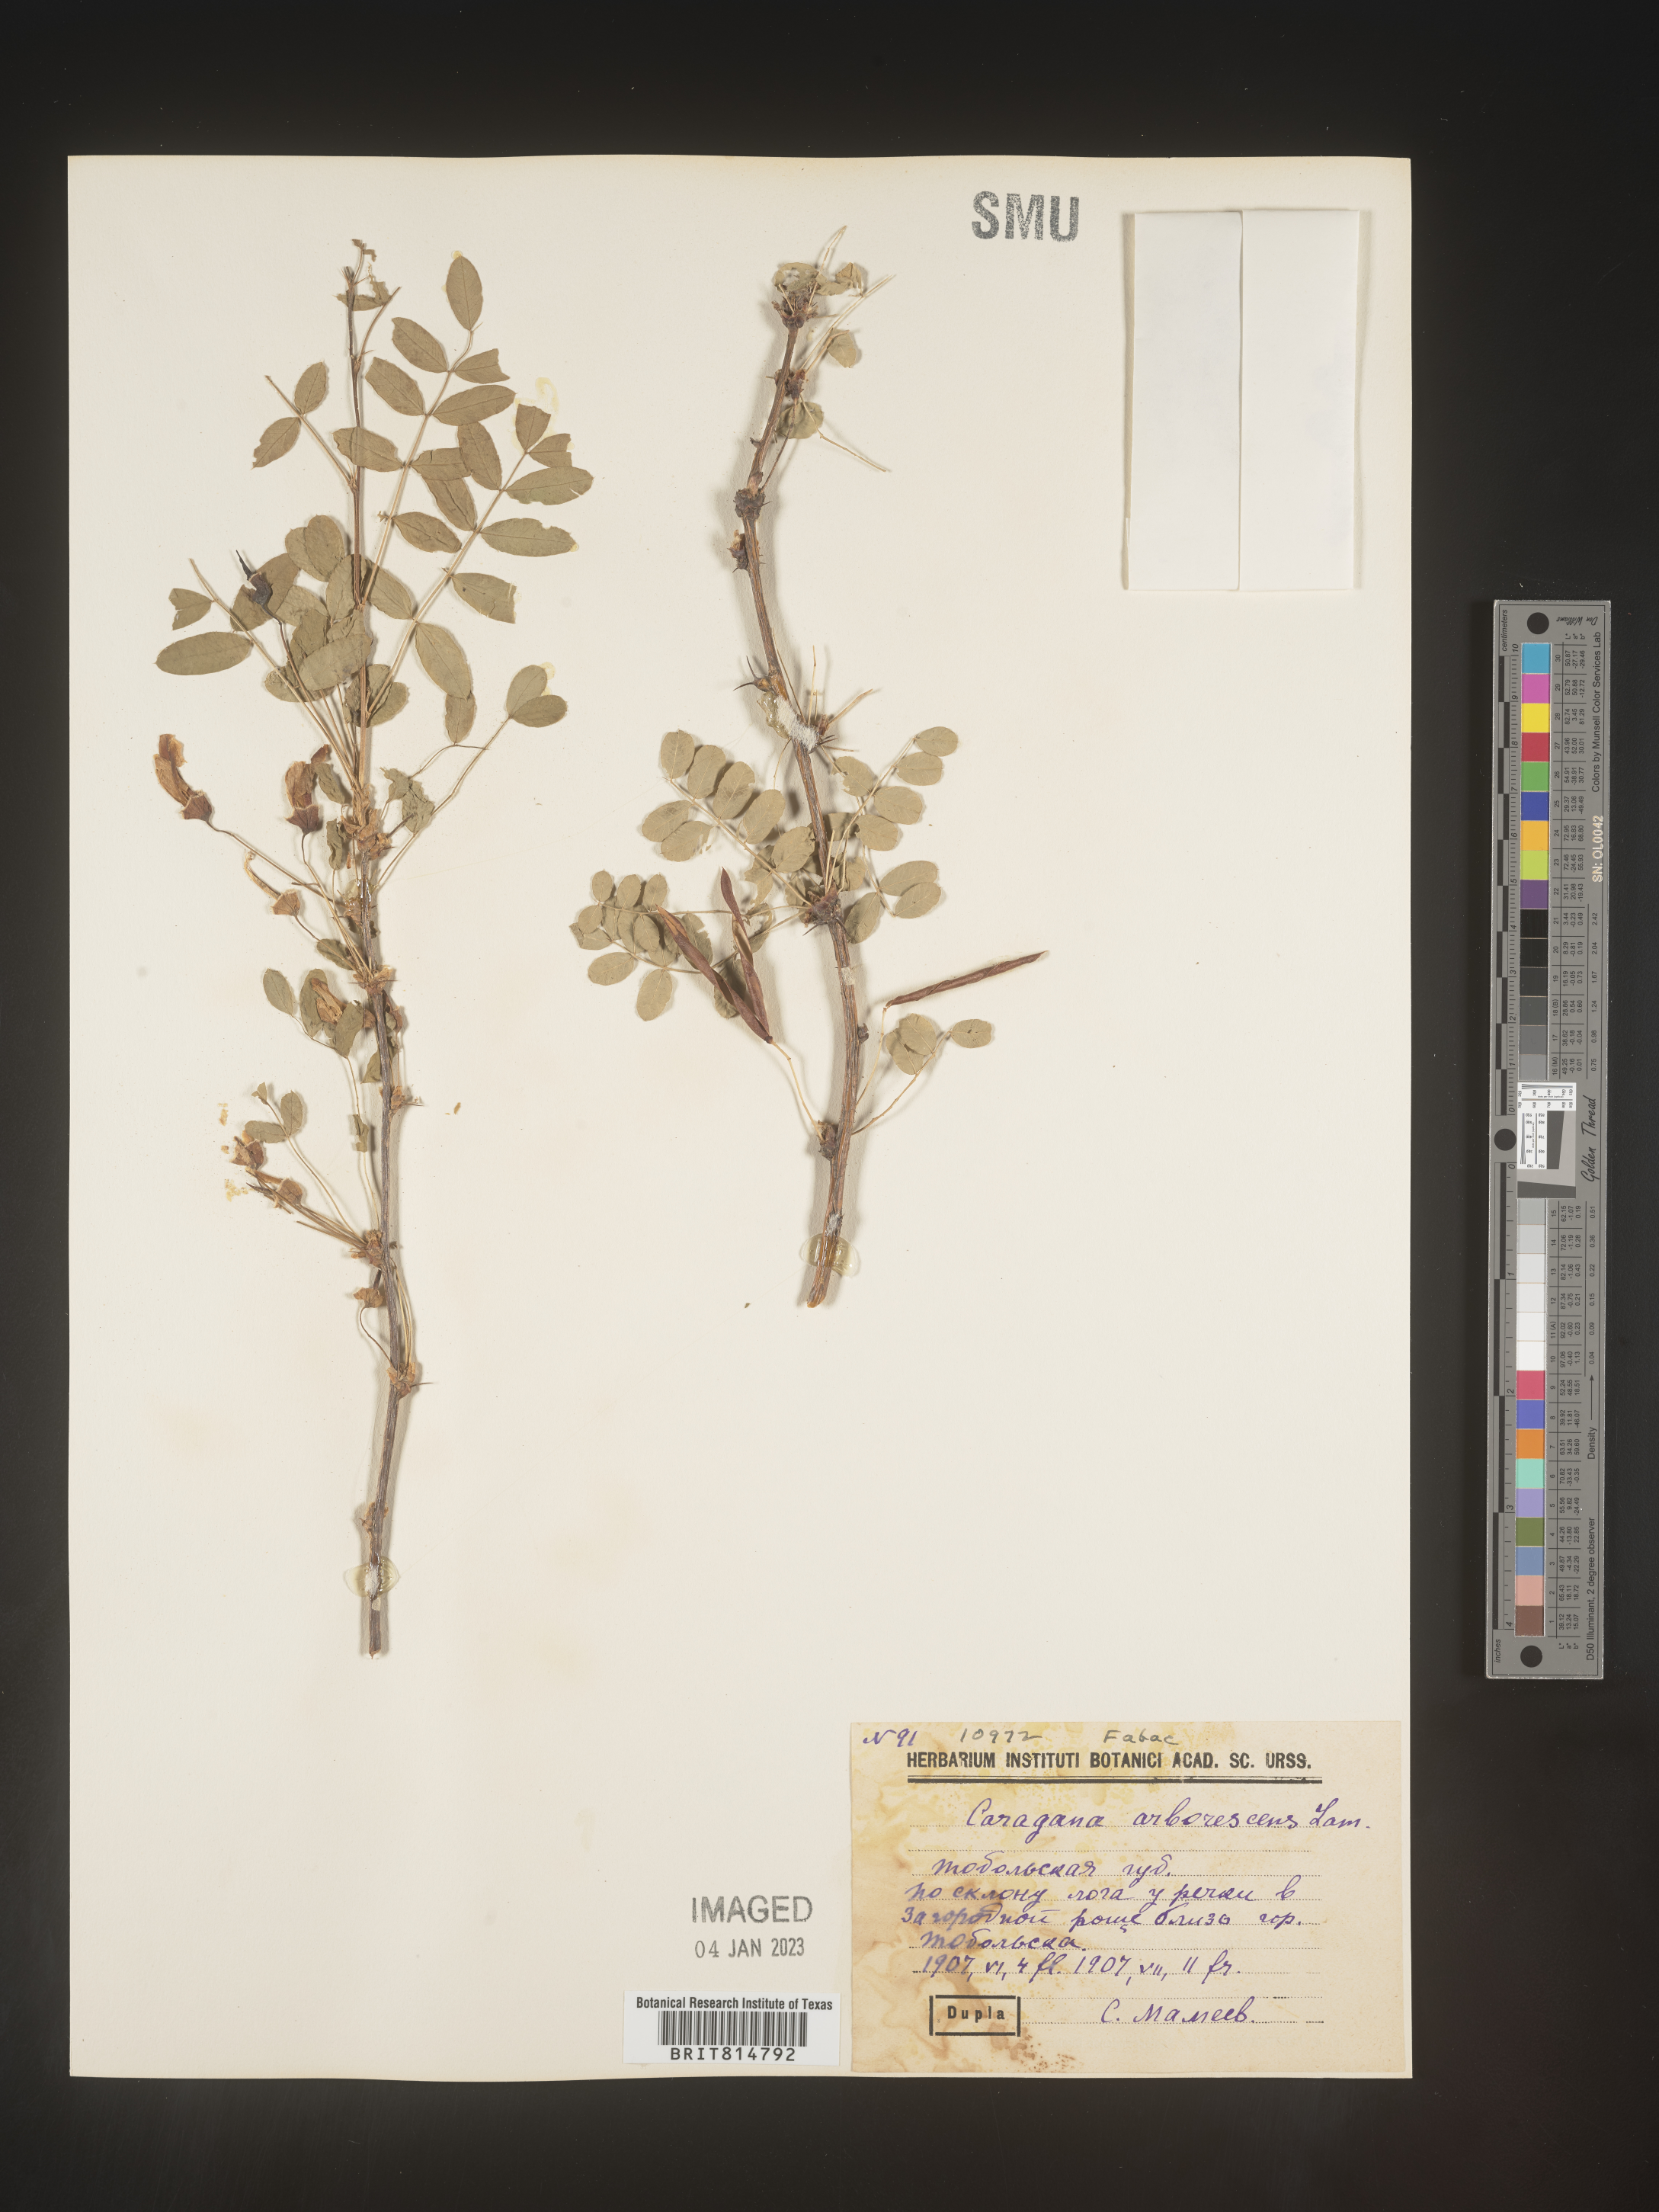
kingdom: Plantae
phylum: Tracheophyta
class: Magnoliopsida
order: Fabales
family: Fabaceae
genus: Caragana
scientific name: Caragana
